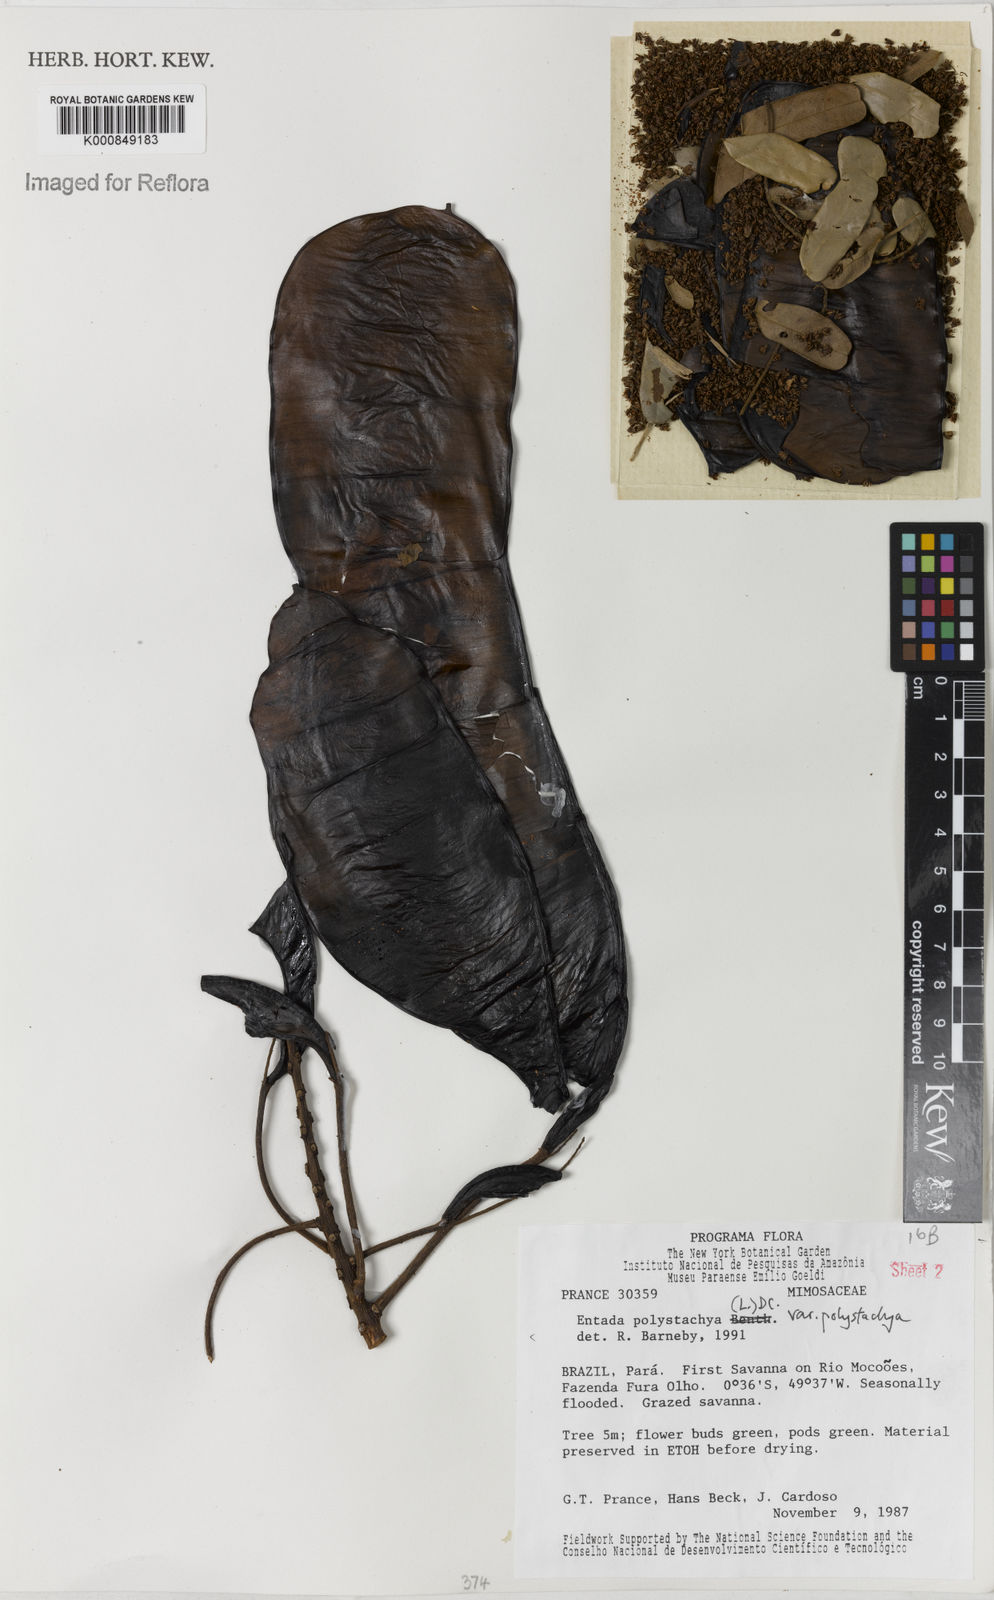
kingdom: Plantae
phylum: Tracheophyta
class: Magnoliopsida
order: Fabales
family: Fabaceae
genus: Entada
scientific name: Entada polystachya
